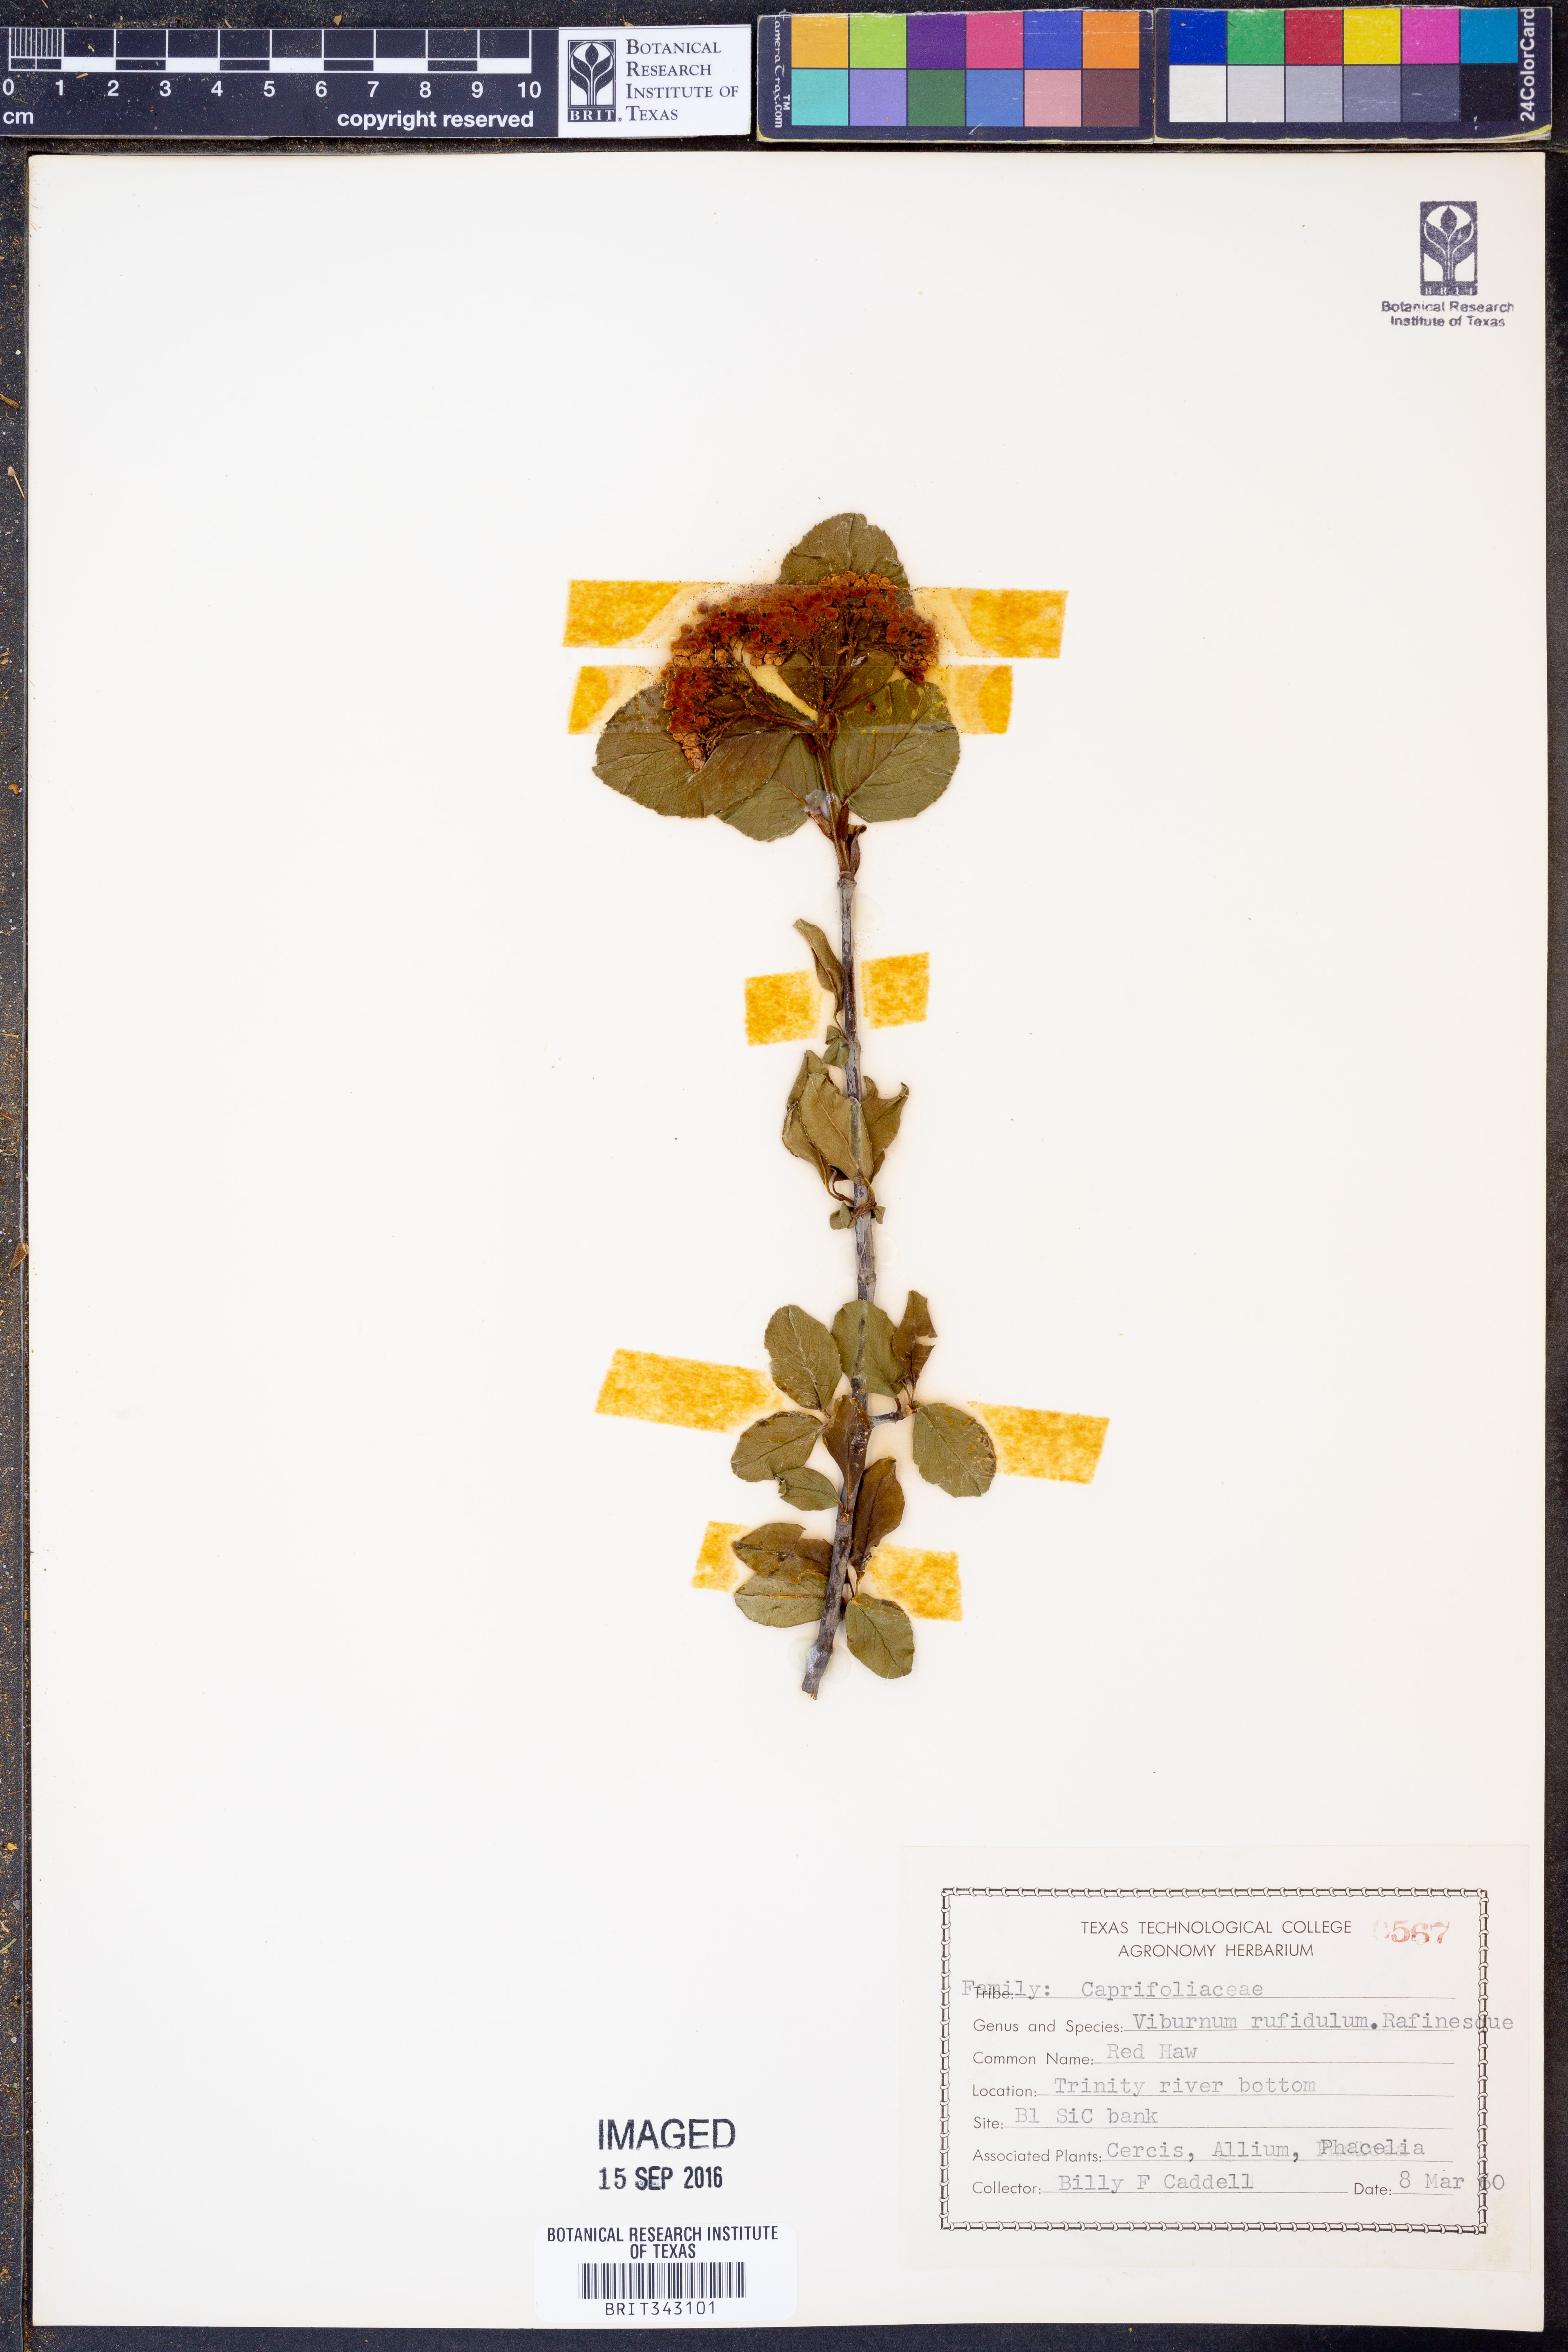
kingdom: Plantae
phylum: Tracheophyta
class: Magnoliopsida
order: Dipsacales
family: Viburnaceae
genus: Viburnum
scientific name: Viburnum rufidulum
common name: Blue haw
